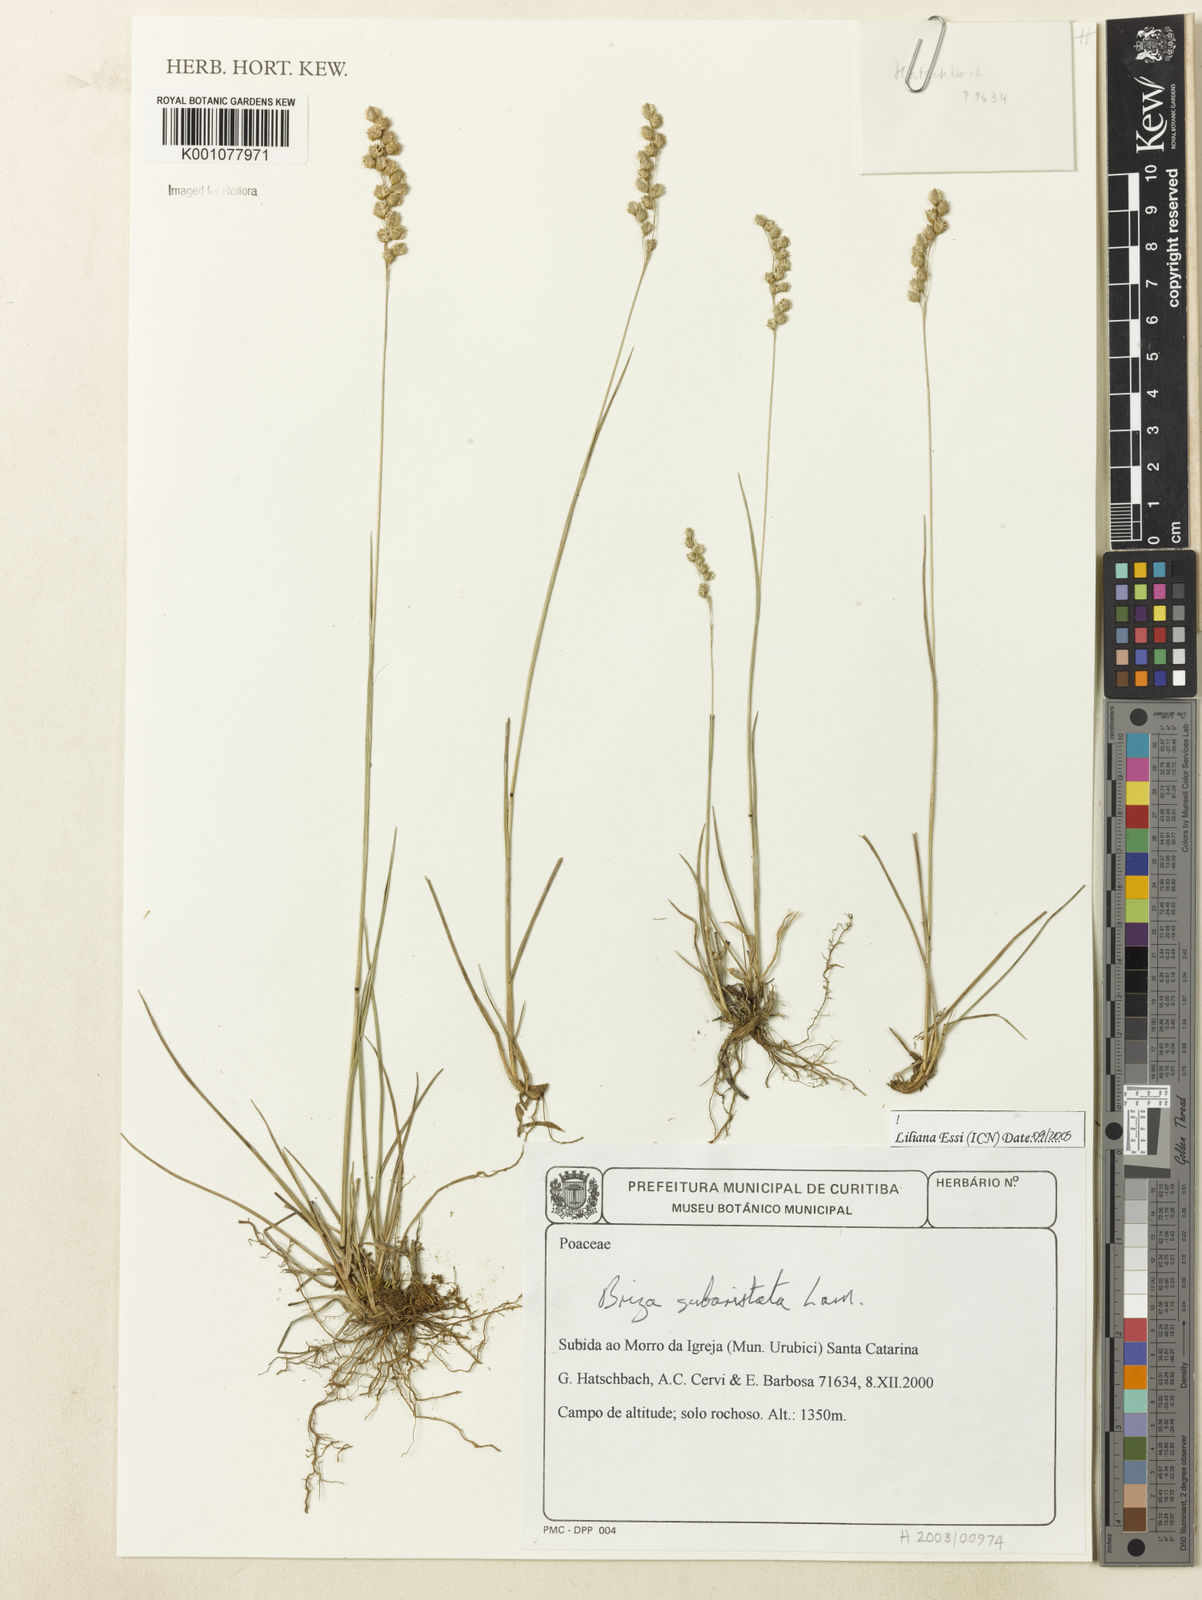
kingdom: Plantae
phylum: Tracheophyta
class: Liliopsida
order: Poales
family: Poaceae
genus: Briza
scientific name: Briza
